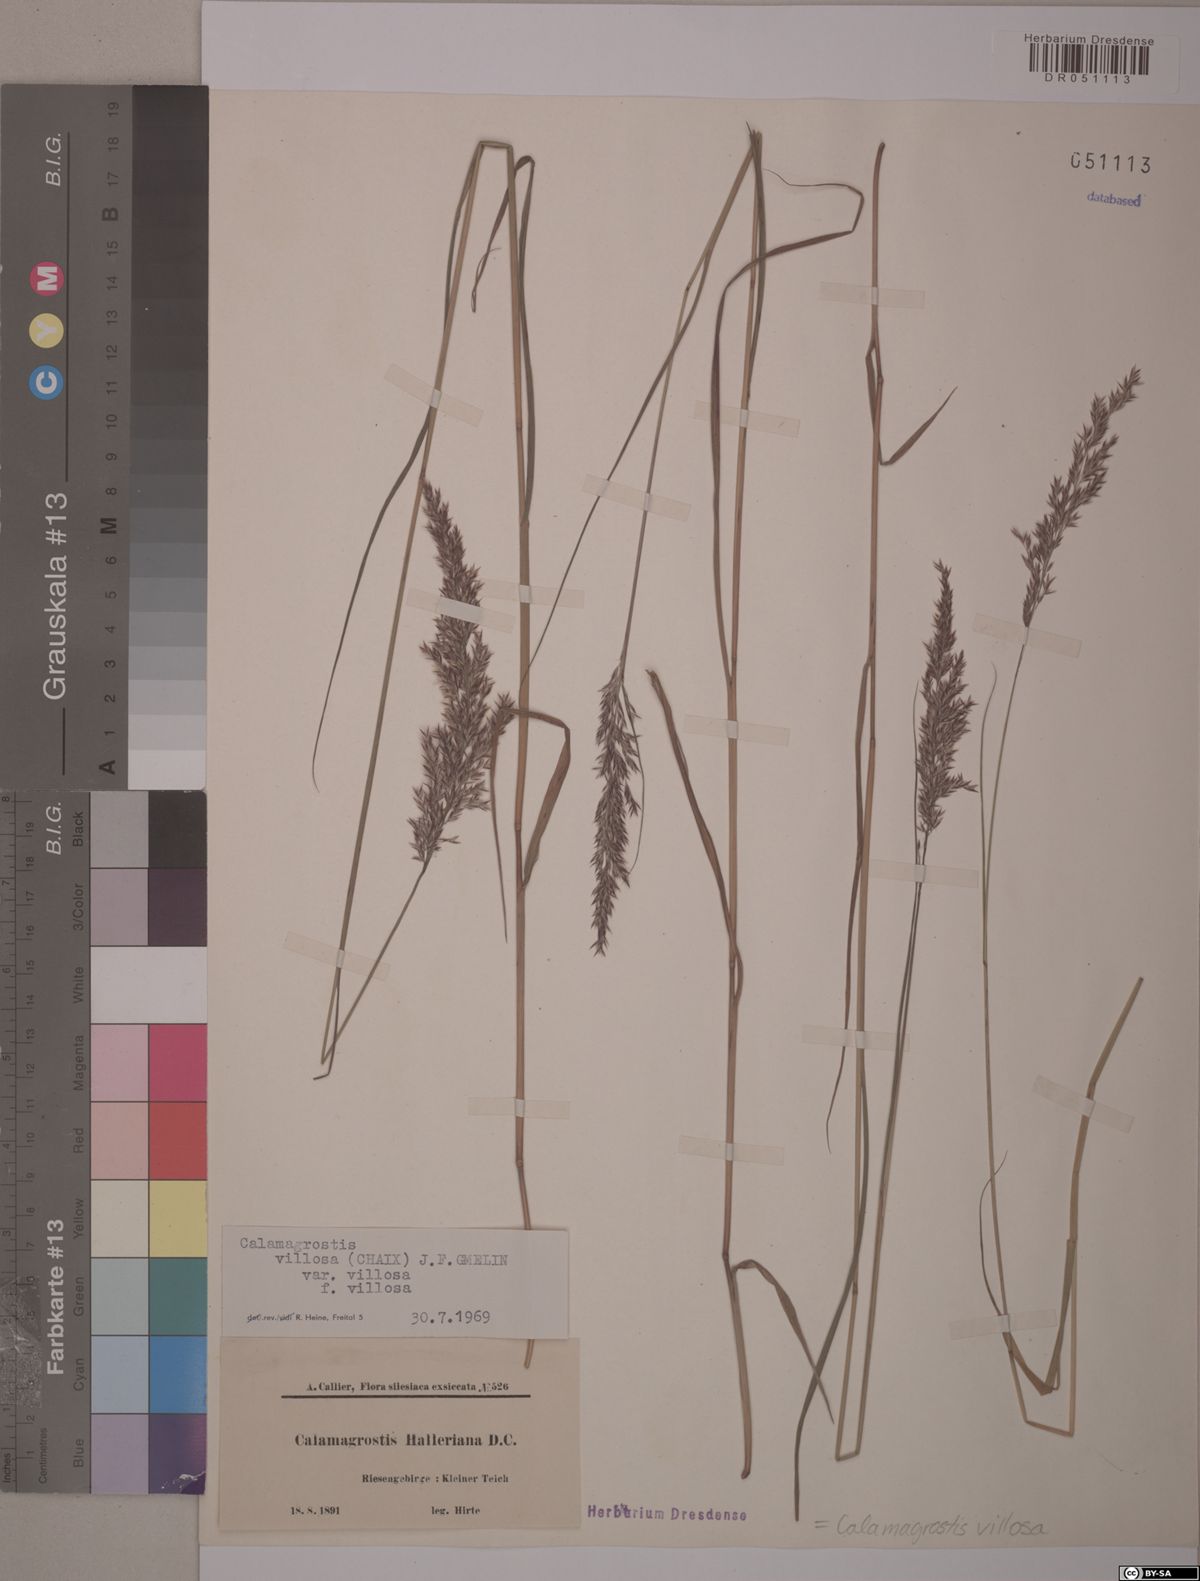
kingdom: Plantae
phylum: Tracheophyta
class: Liliopsida
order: Poales
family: Poaceae
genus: Calamagrostis
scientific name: Calamagrostis villosa
